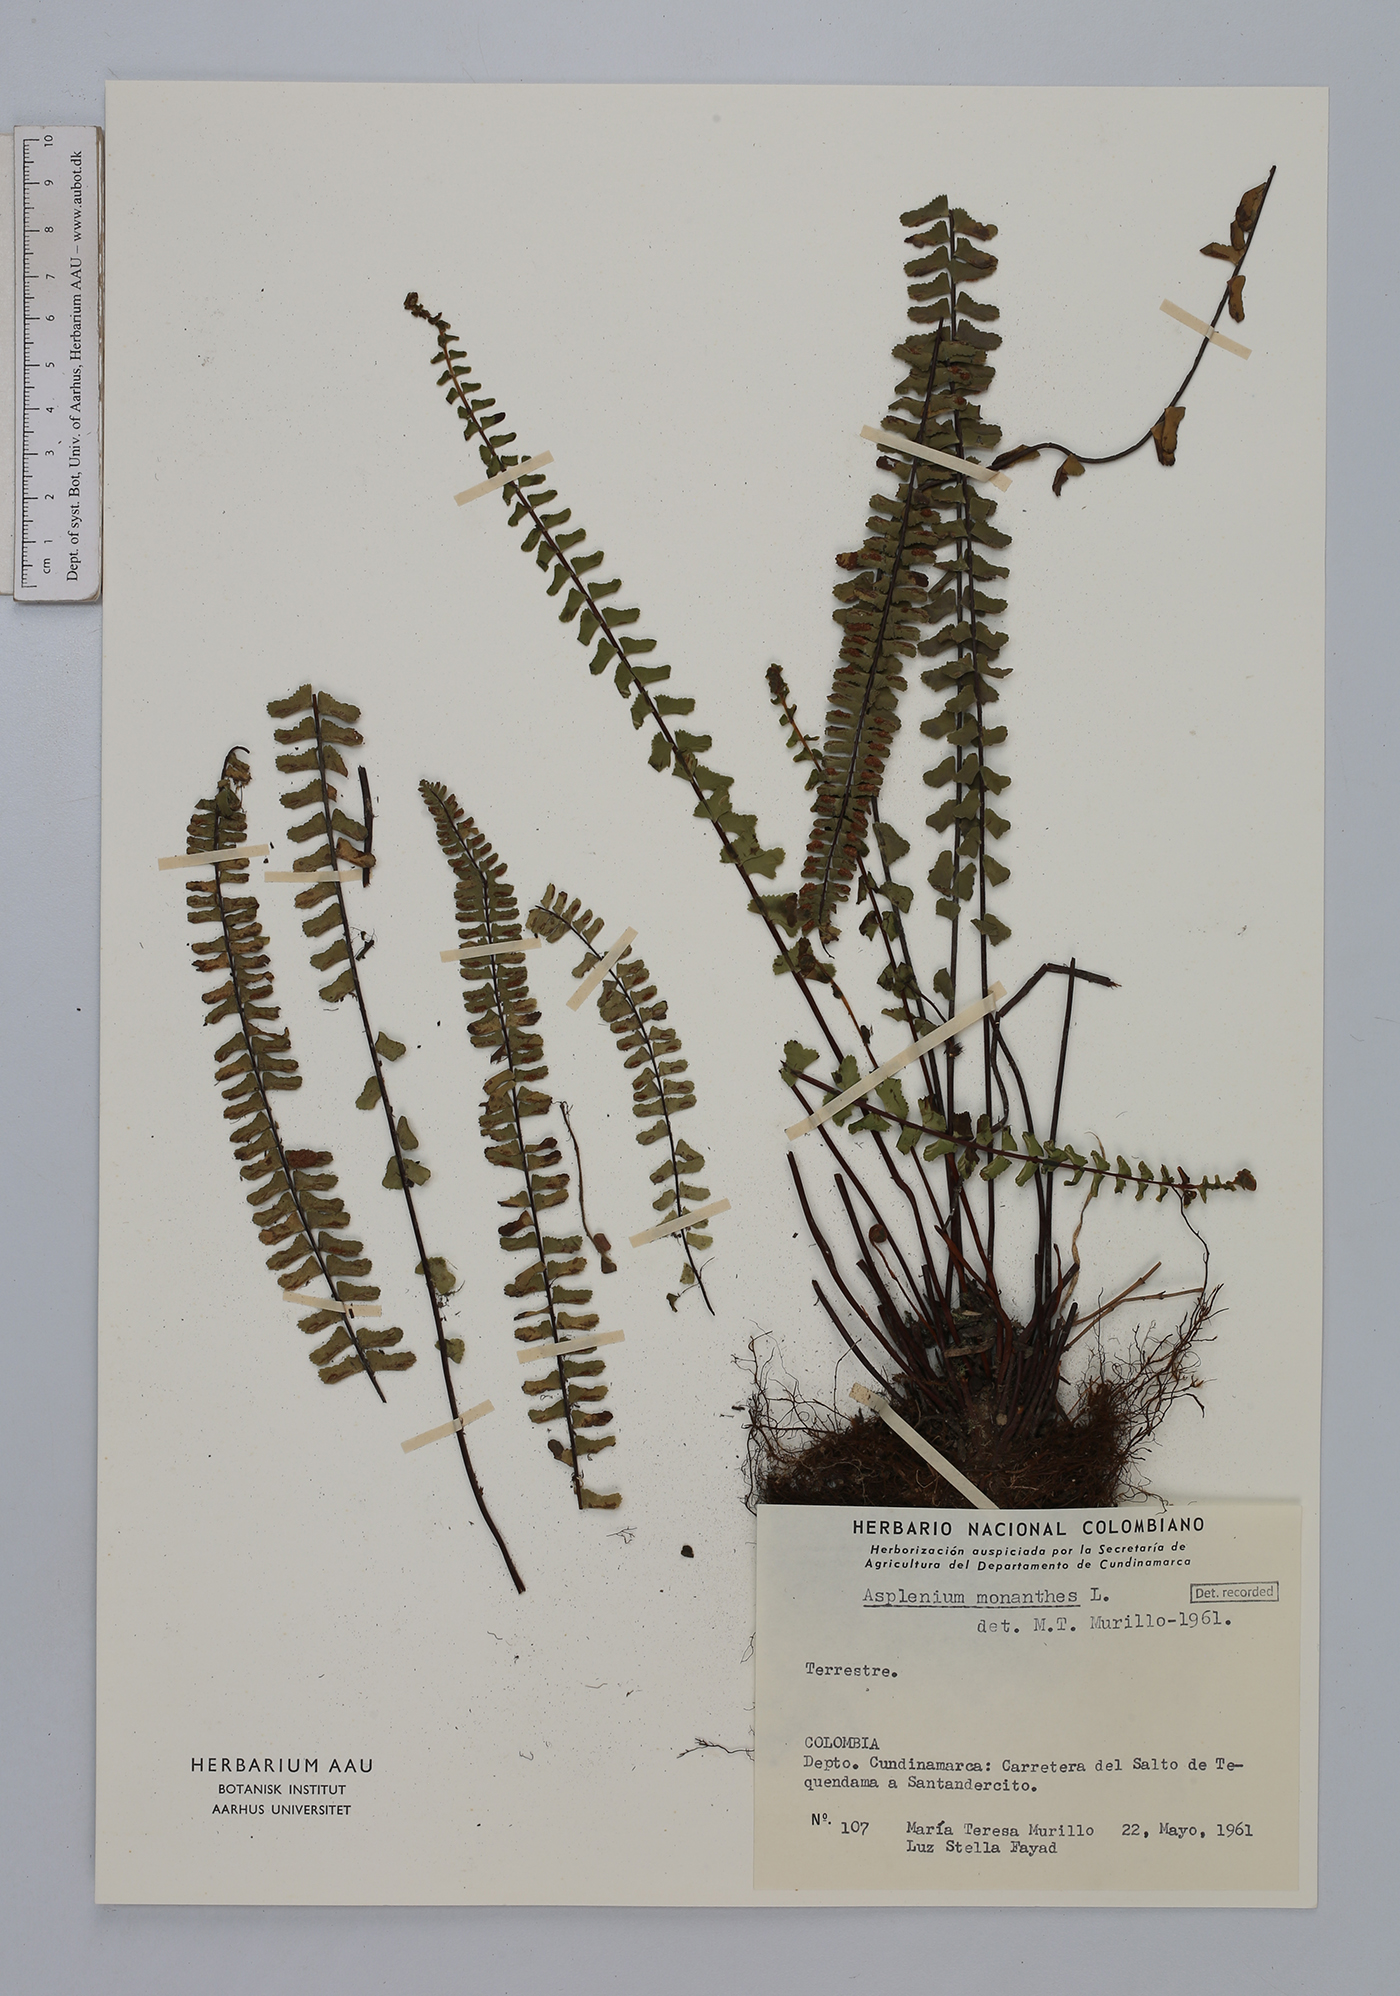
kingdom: Plantae
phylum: Tracheophyta
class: Polypodiopsida
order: Polypodiales
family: Aspleniaceae
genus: Asplenium
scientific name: Asplenium monanthes
